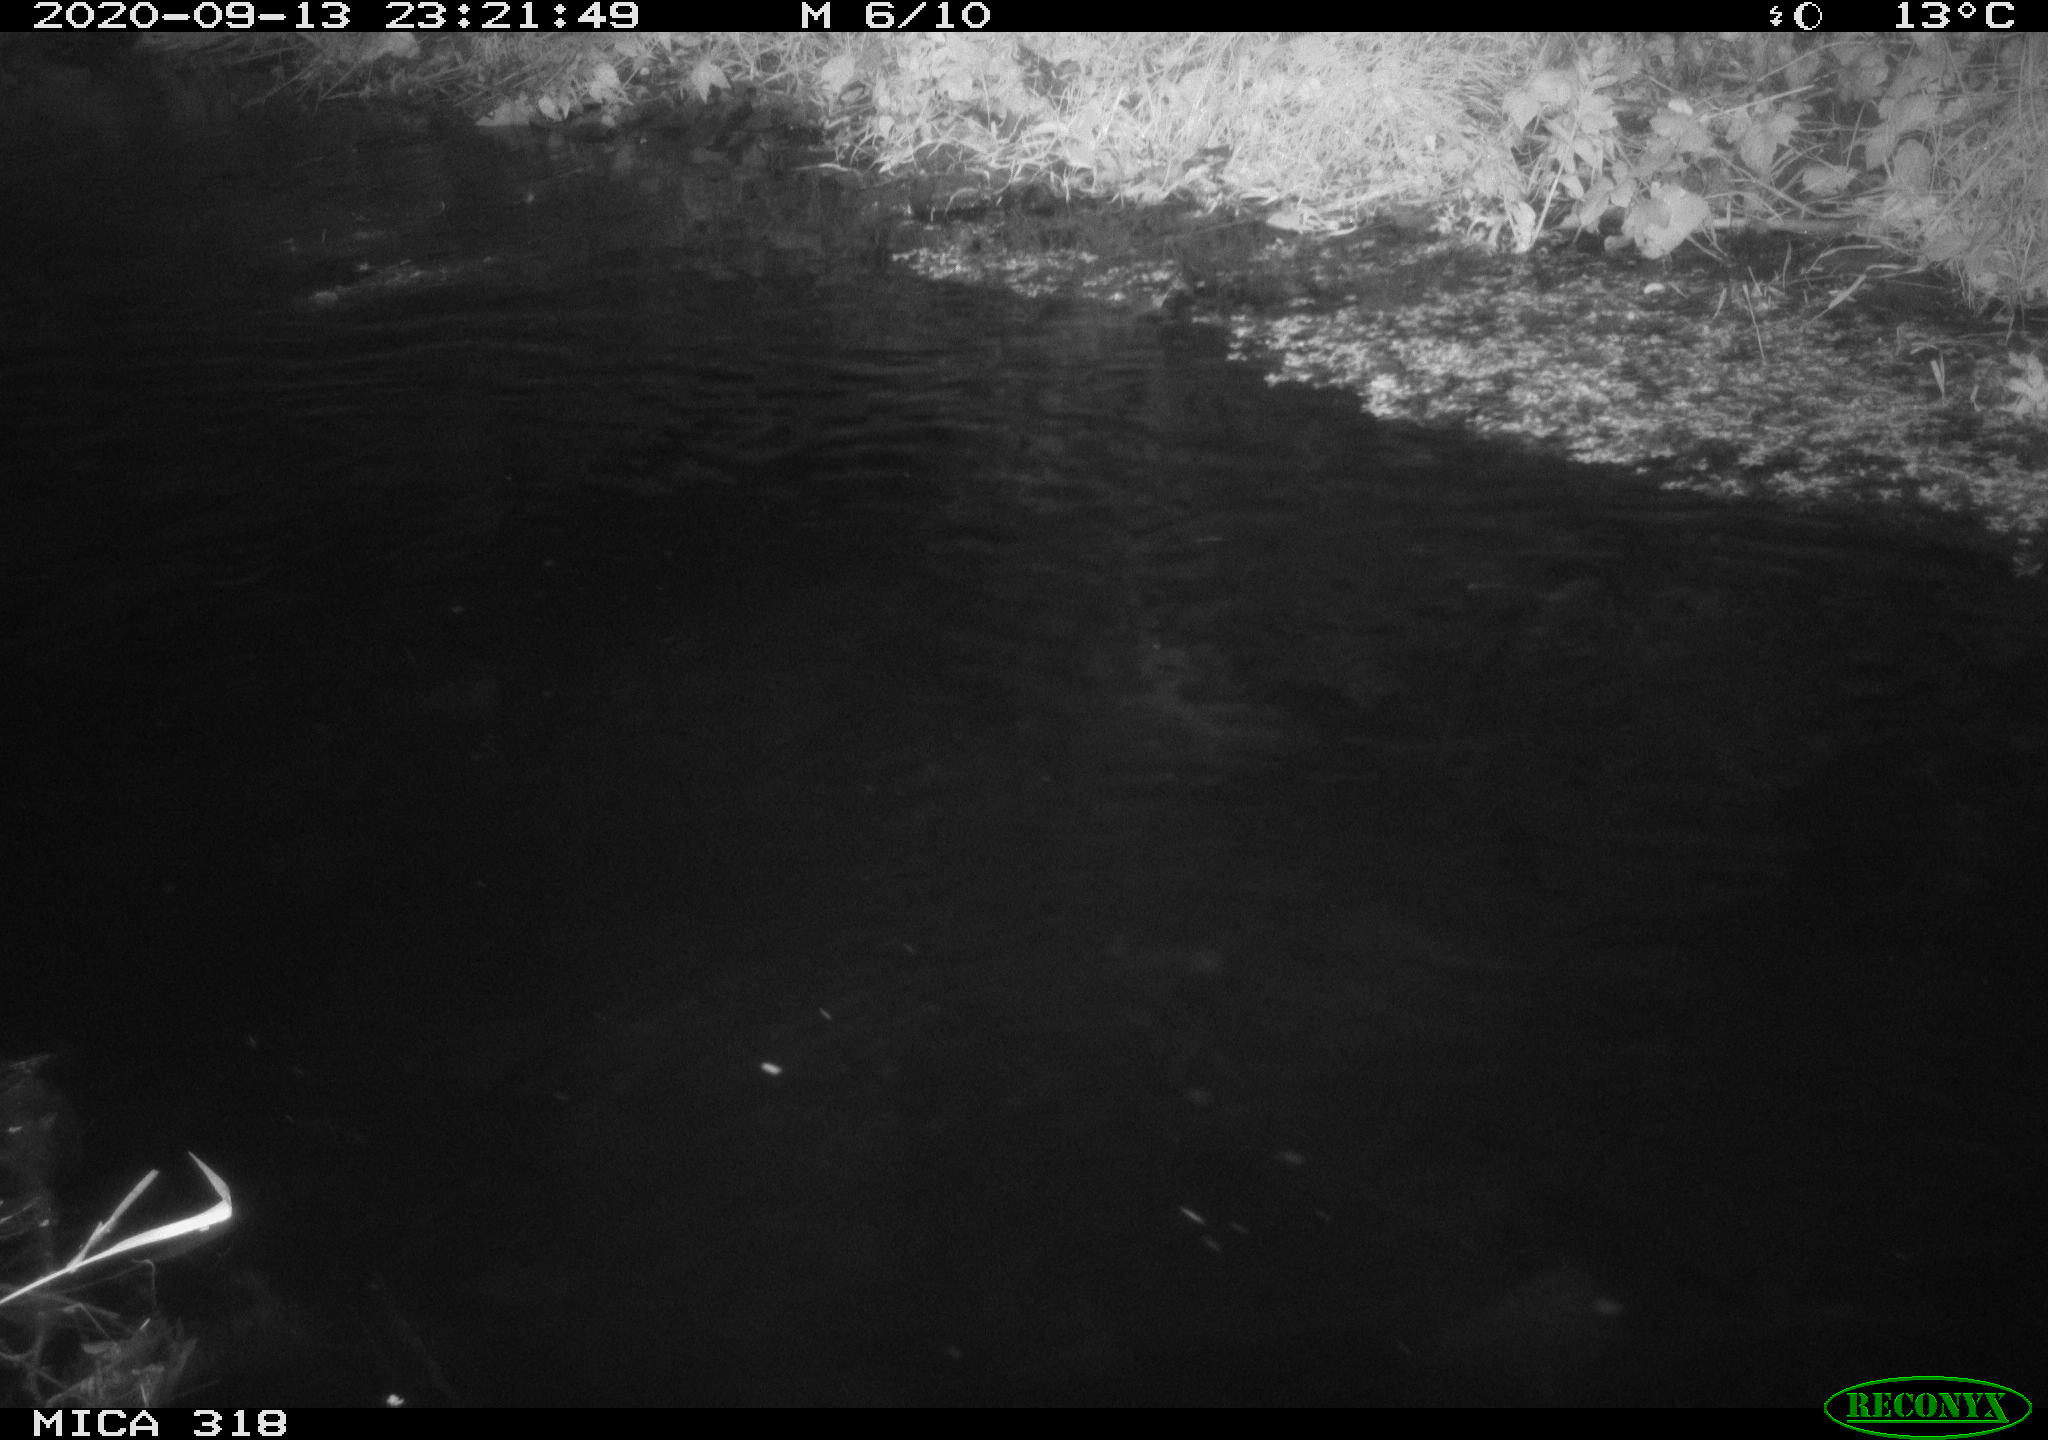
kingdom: Animalia
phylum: Chordata
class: Aves
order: Anseriformes
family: Anatidae
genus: Anas
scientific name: Anas platyrhynchos
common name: Mallard
